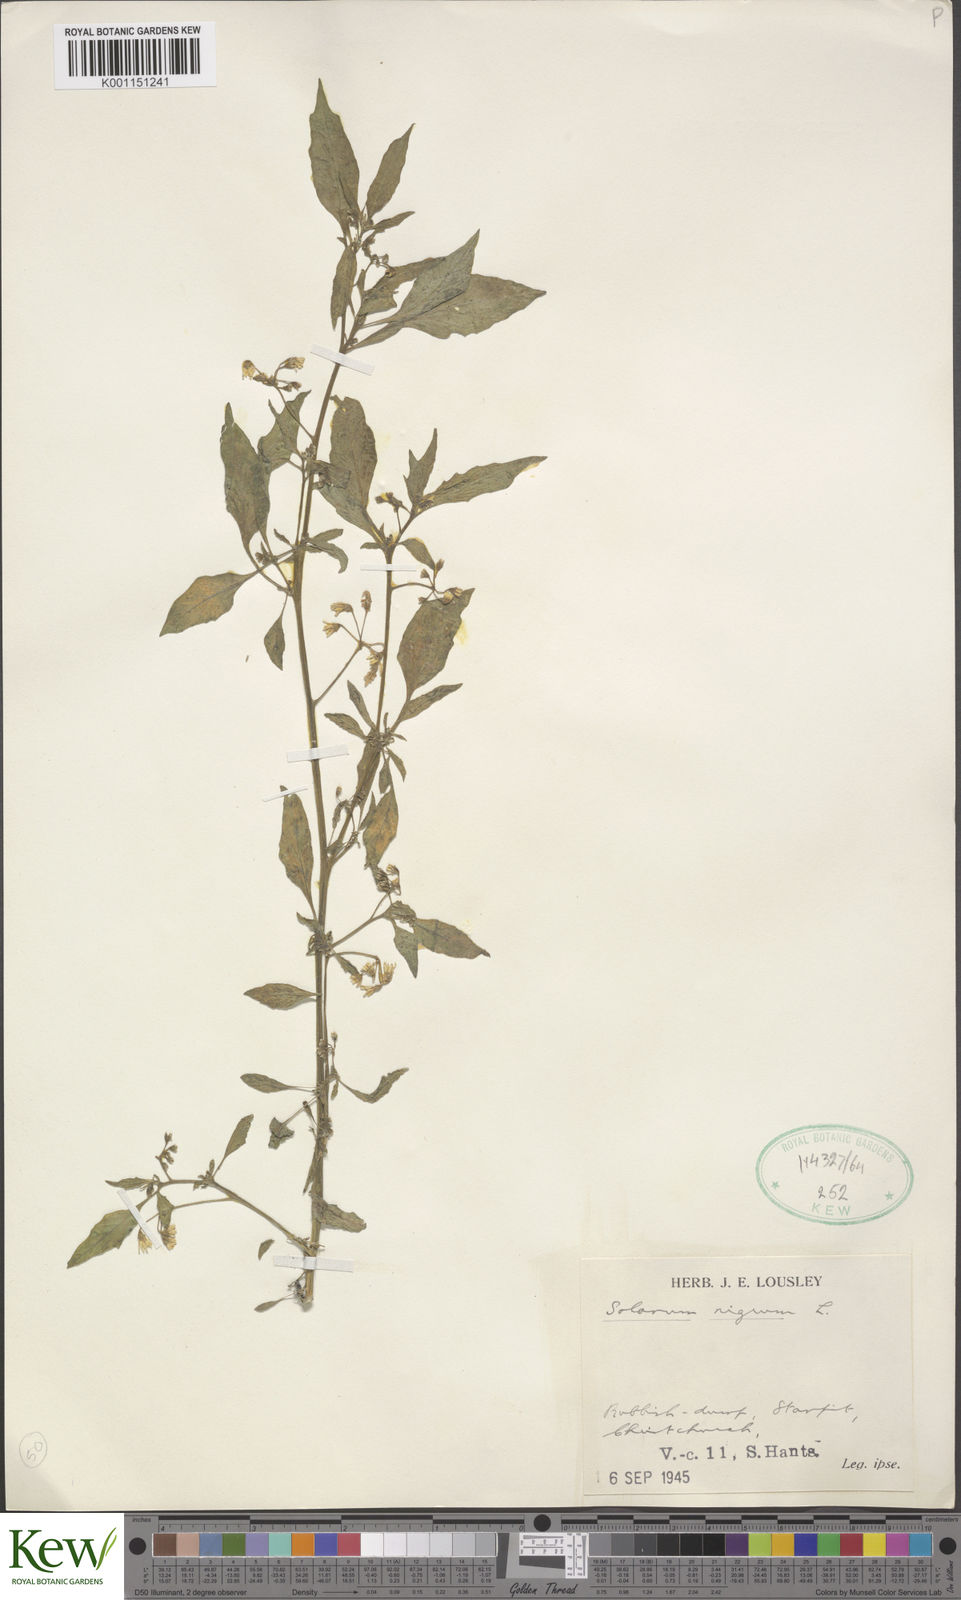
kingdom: Plantae
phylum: Tracheophyta
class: Magnoliopsida
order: Solanales
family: Solanaceae
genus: Solanum
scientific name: Solanum nigrum
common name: Black nightshade
